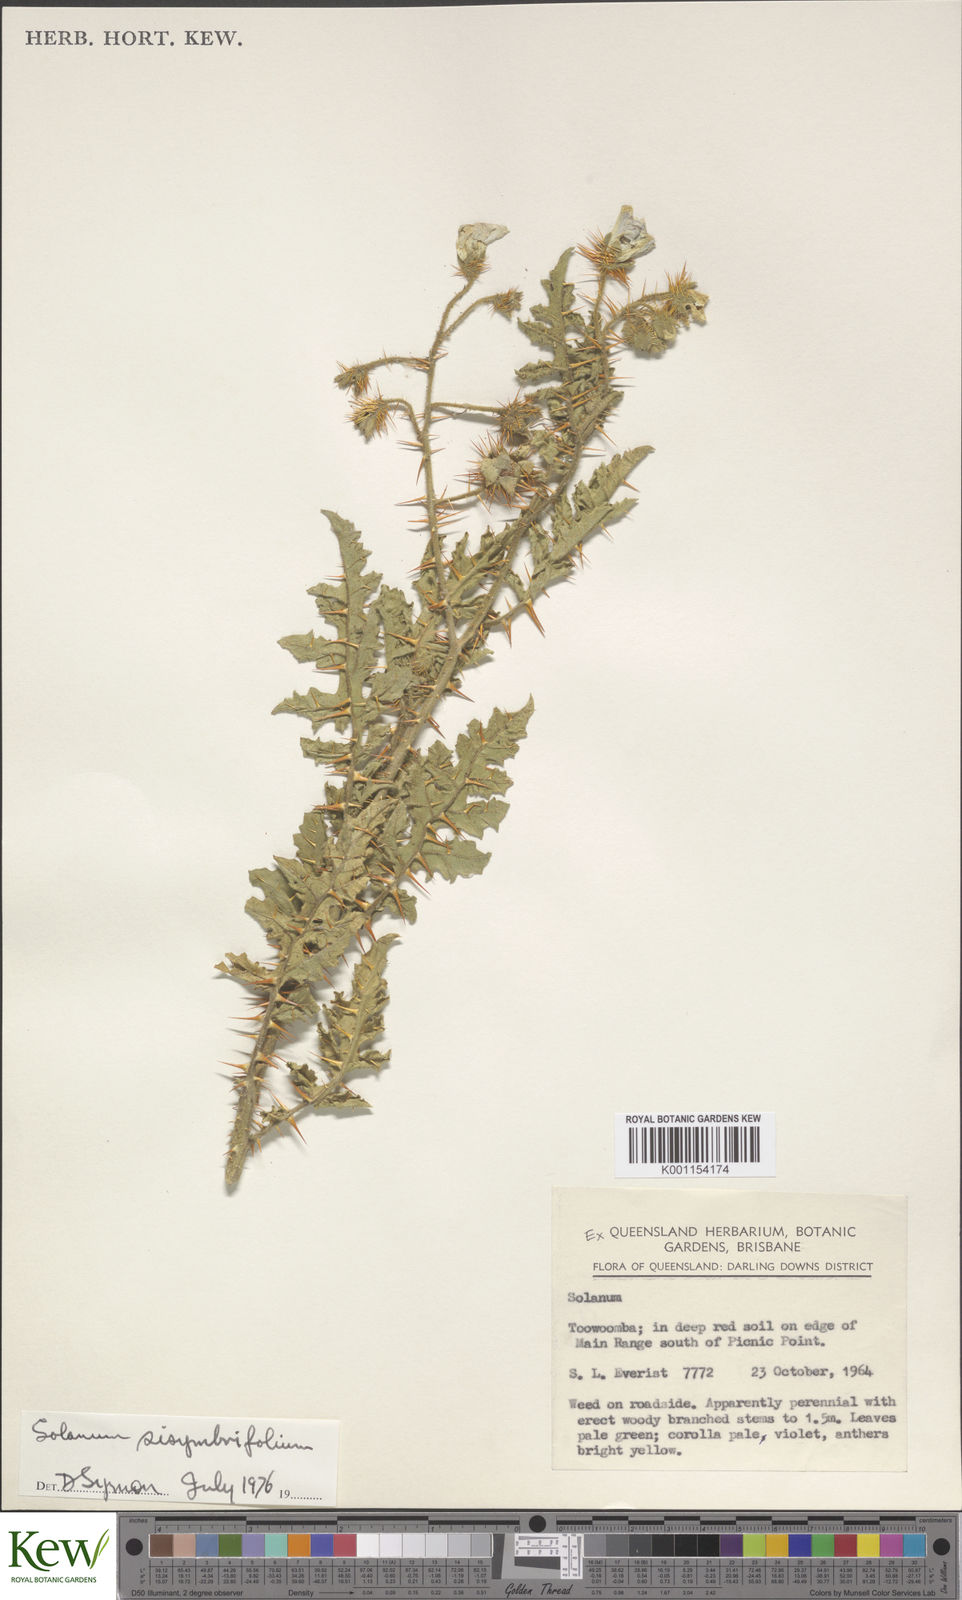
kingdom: Plantae
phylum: Tracheophyta
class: Magnoliopsida
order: Solanales
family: Solanaceae
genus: Solanum
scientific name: Solanum sisymbriifolium
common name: Red buffalo-bur
